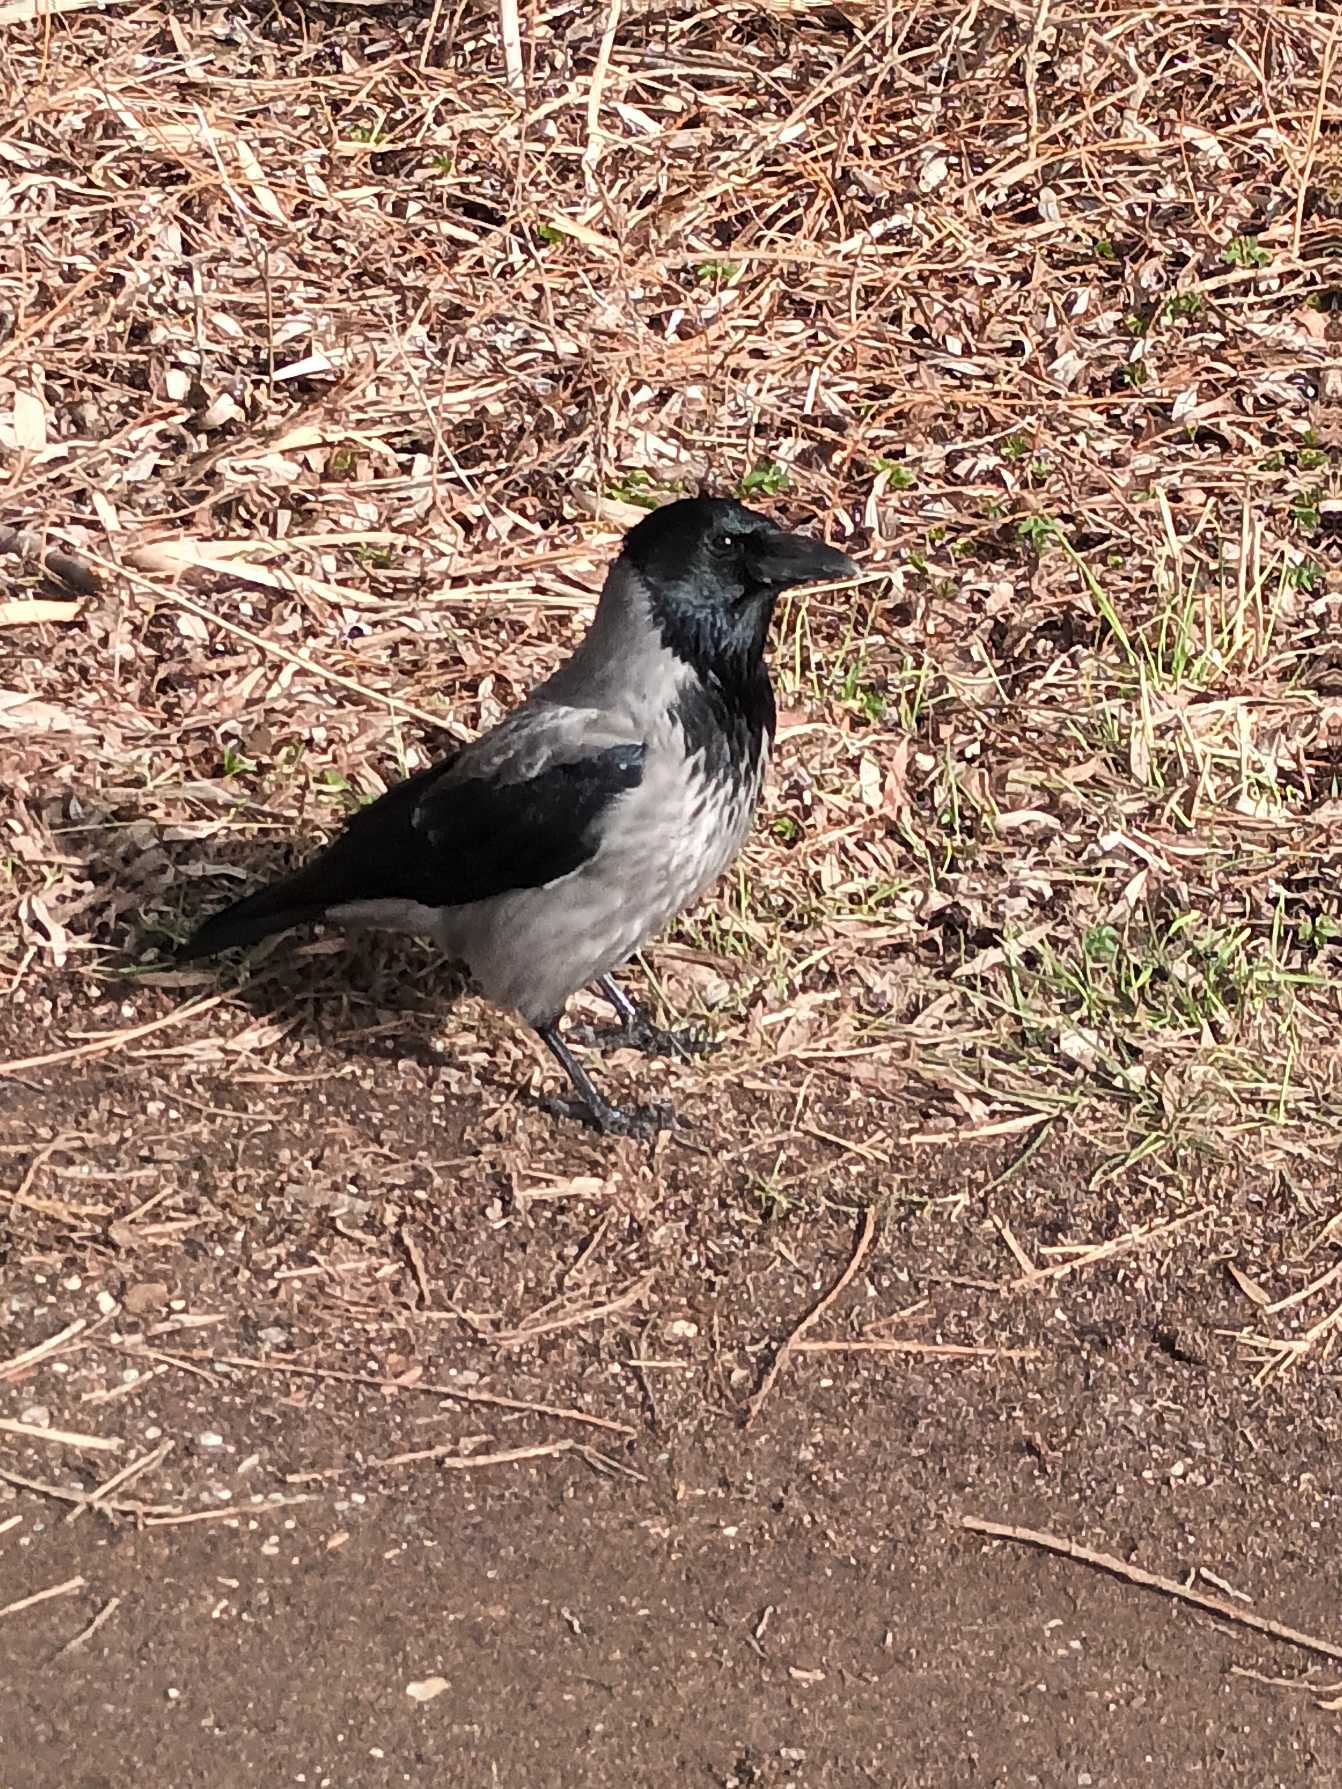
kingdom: Animalia
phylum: Chordata
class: Aves
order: Passeriformes
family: Corvidae
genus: Corvus
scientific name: Corvus cornix
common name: Gråkrage
